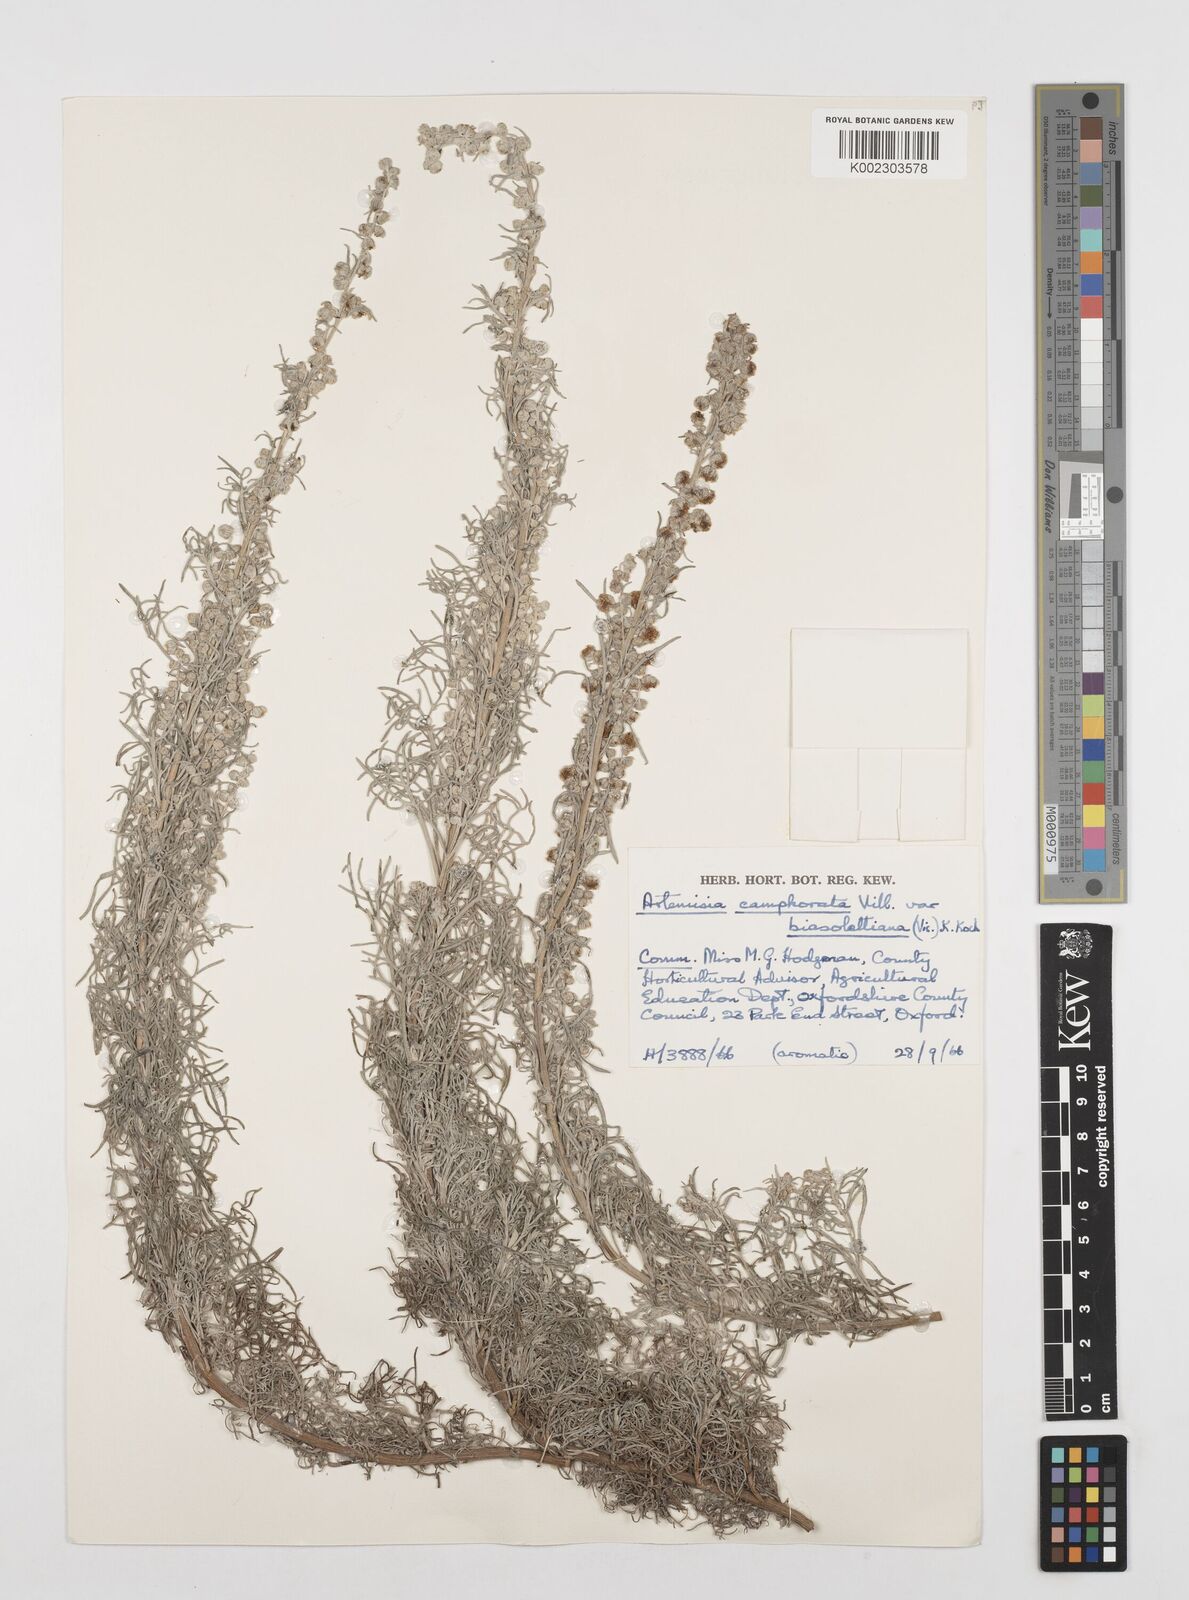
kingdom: Plantae
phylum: Tracheophyta
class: Magnoliopsida
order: Asterales
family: Asteraceae
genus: Artemisia
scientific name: Artemisia alba
